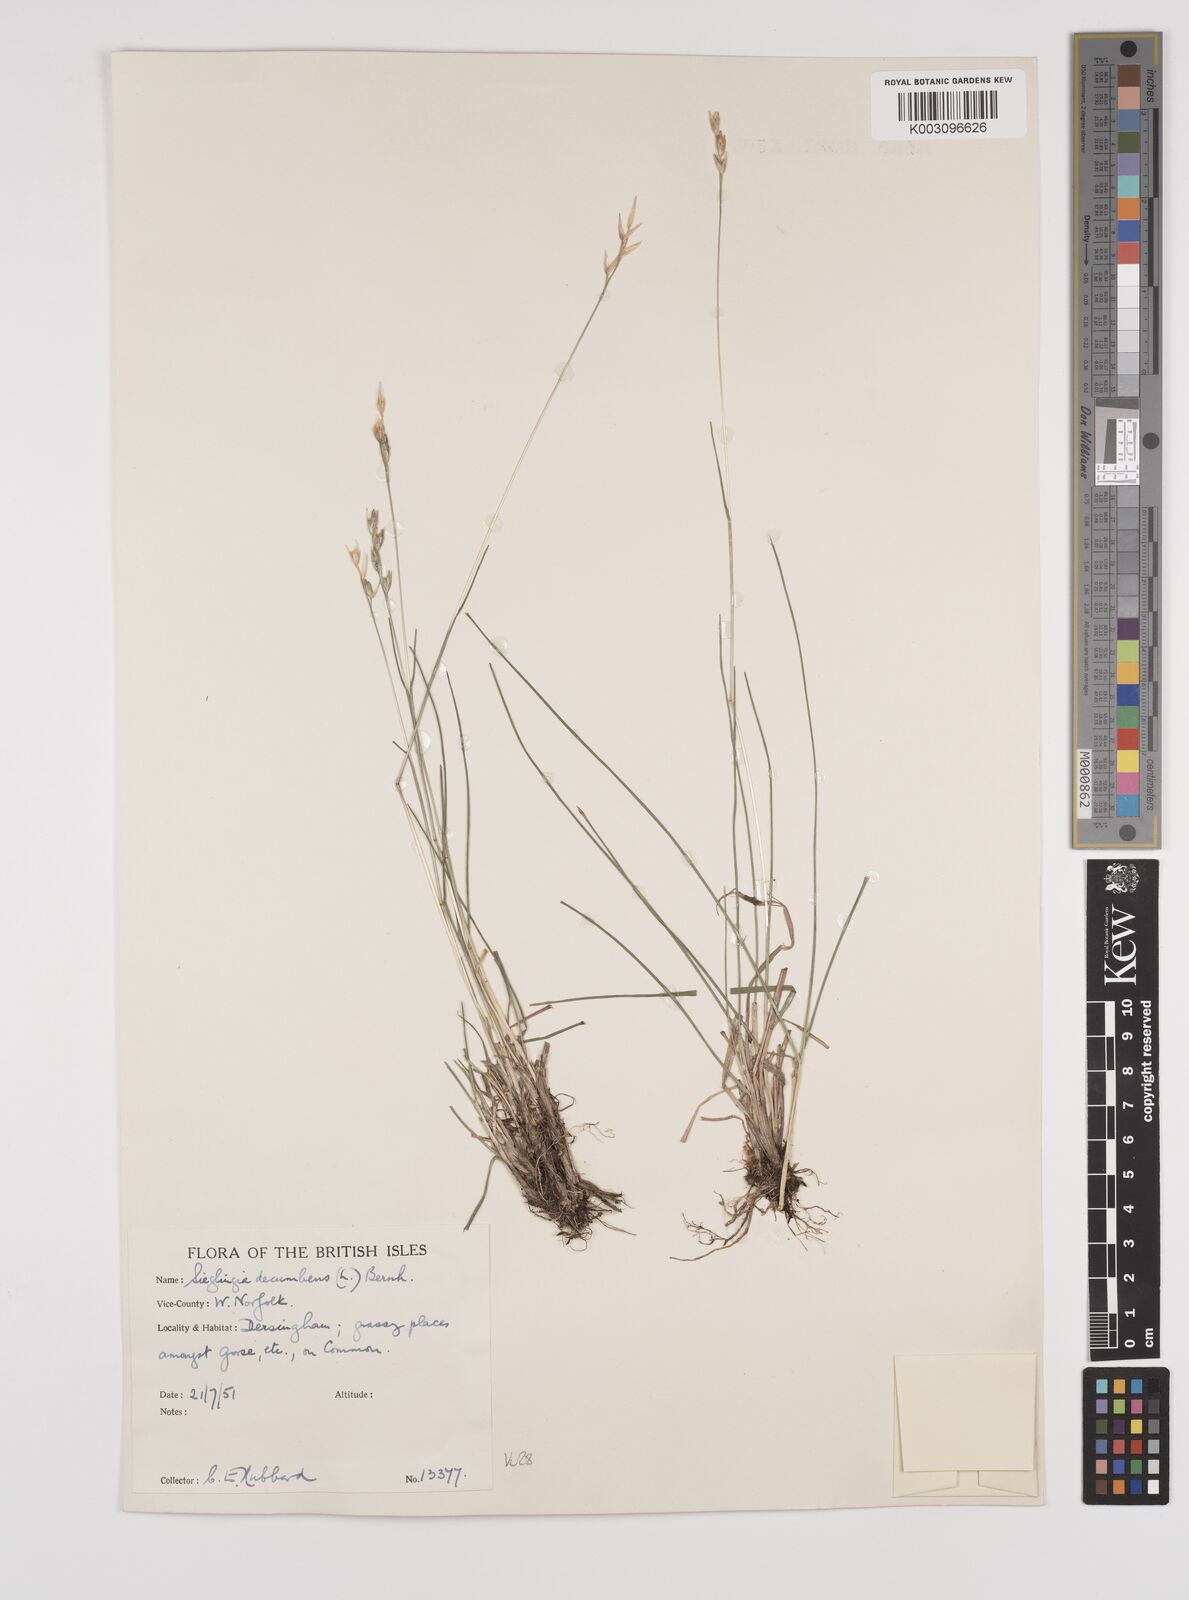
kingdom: Plantae
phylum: Tracheophyta
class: Liliopsida
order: Poales
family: Poaceae
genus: Danthonia
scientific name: Danthonia decumbens
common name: Common heathgrass
